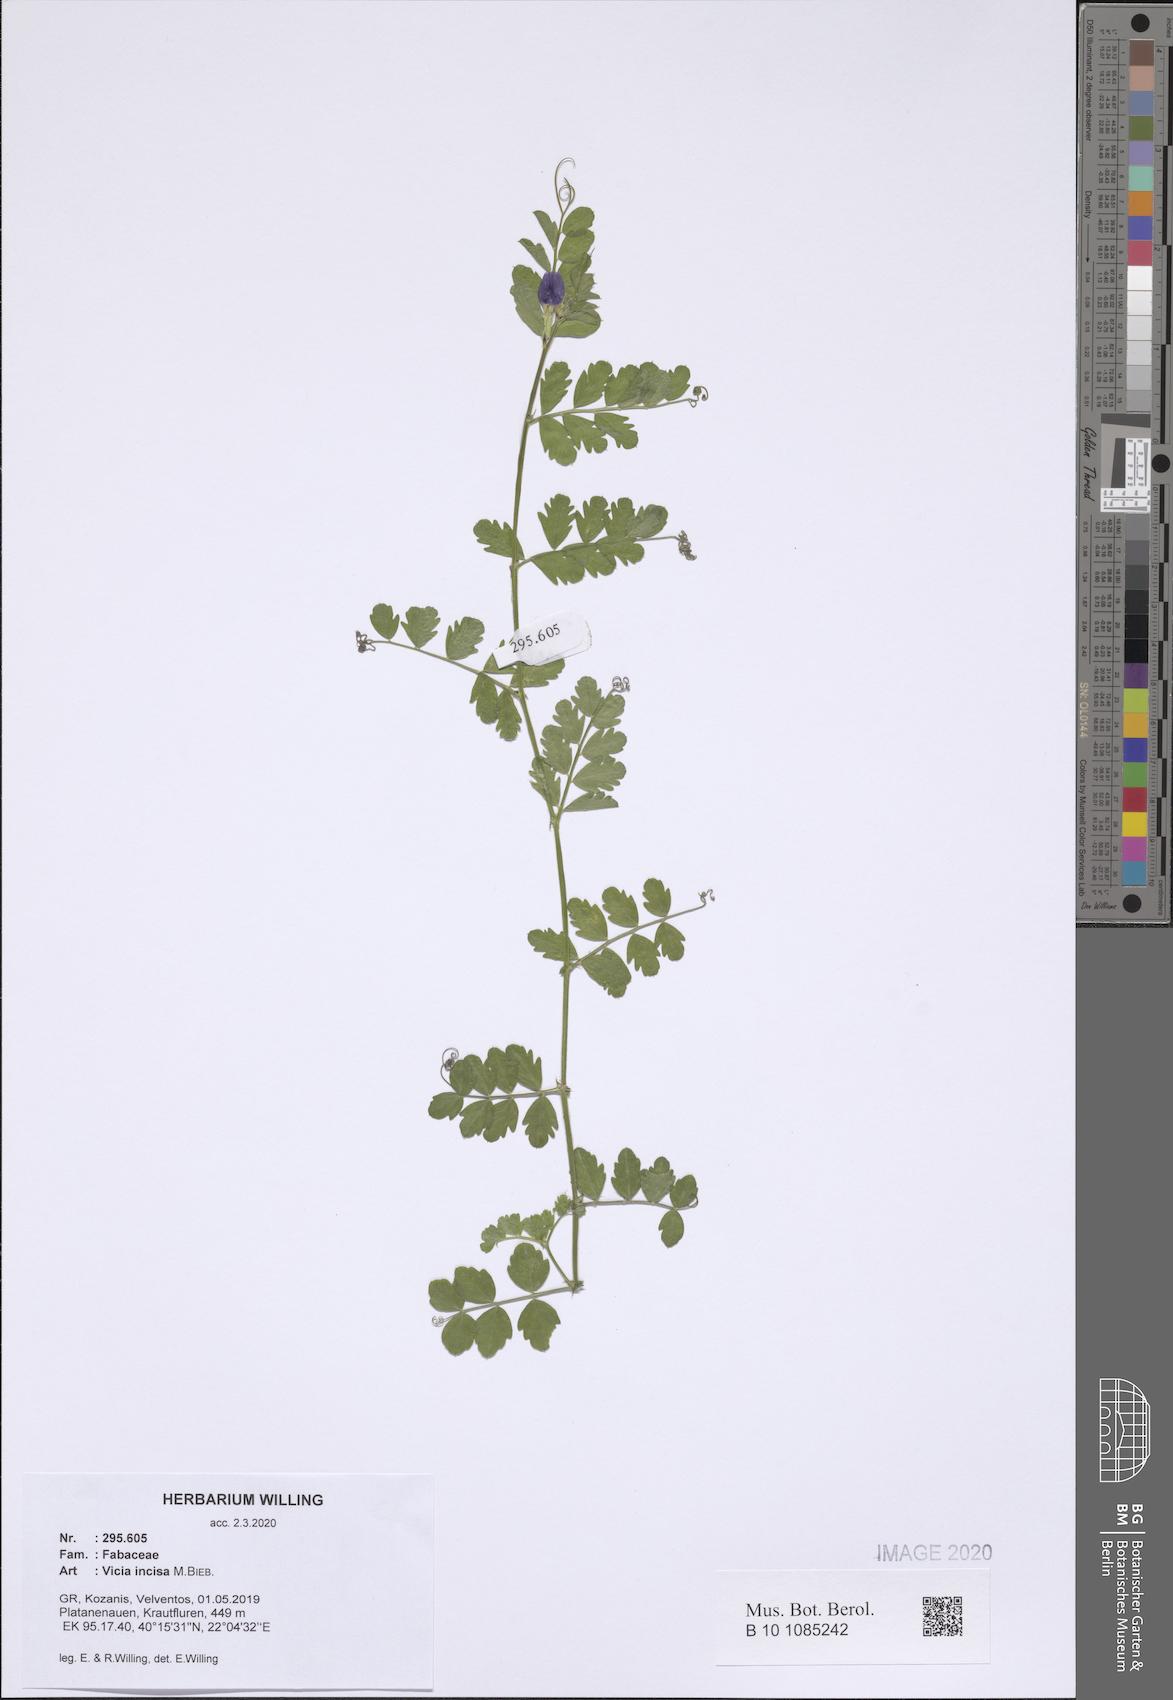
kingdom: Plantae
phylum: Tracheophyta
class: Magnoliopsida
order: Fabales
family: Fabaceae
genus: Vicia
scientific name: Vicia sativa
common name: Garden vetch
